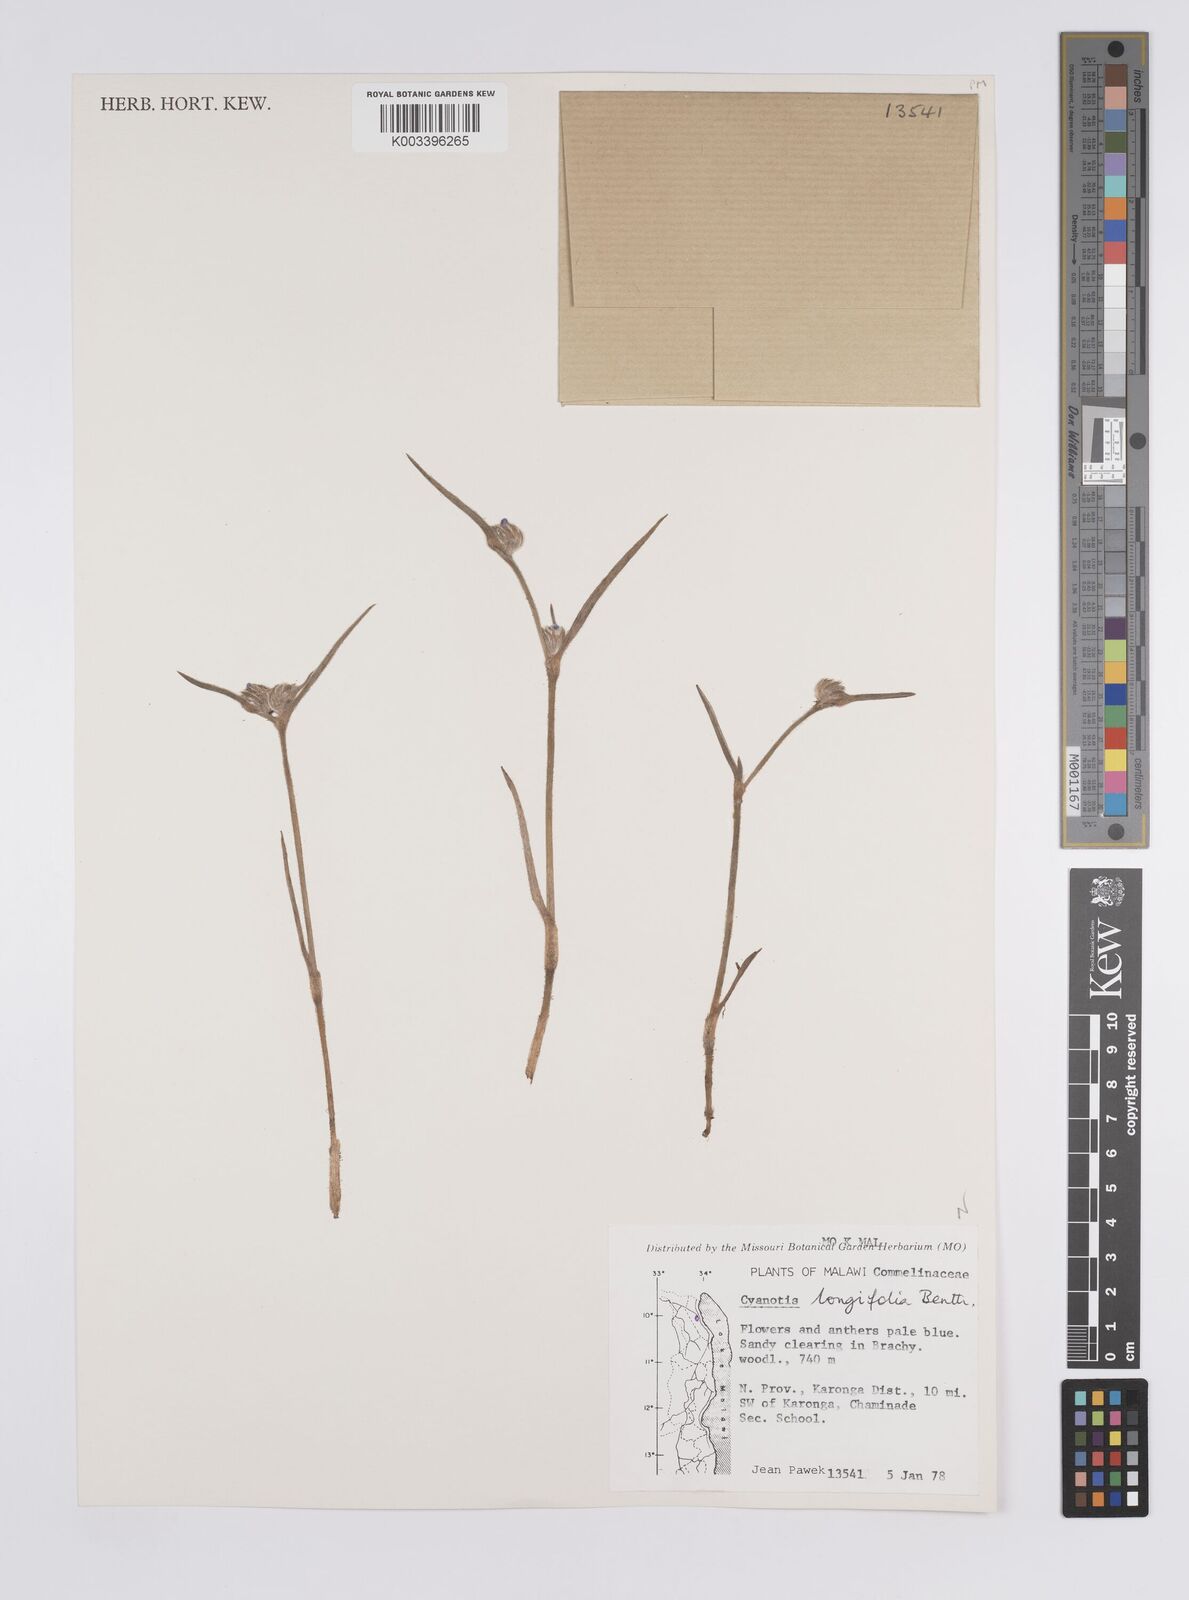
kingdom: Plantae
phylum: Tracheophyta
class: Liliopsida
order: Commelinales
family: Commelinaceae
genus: Cyanotis
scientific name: Cyanotis longifolia
